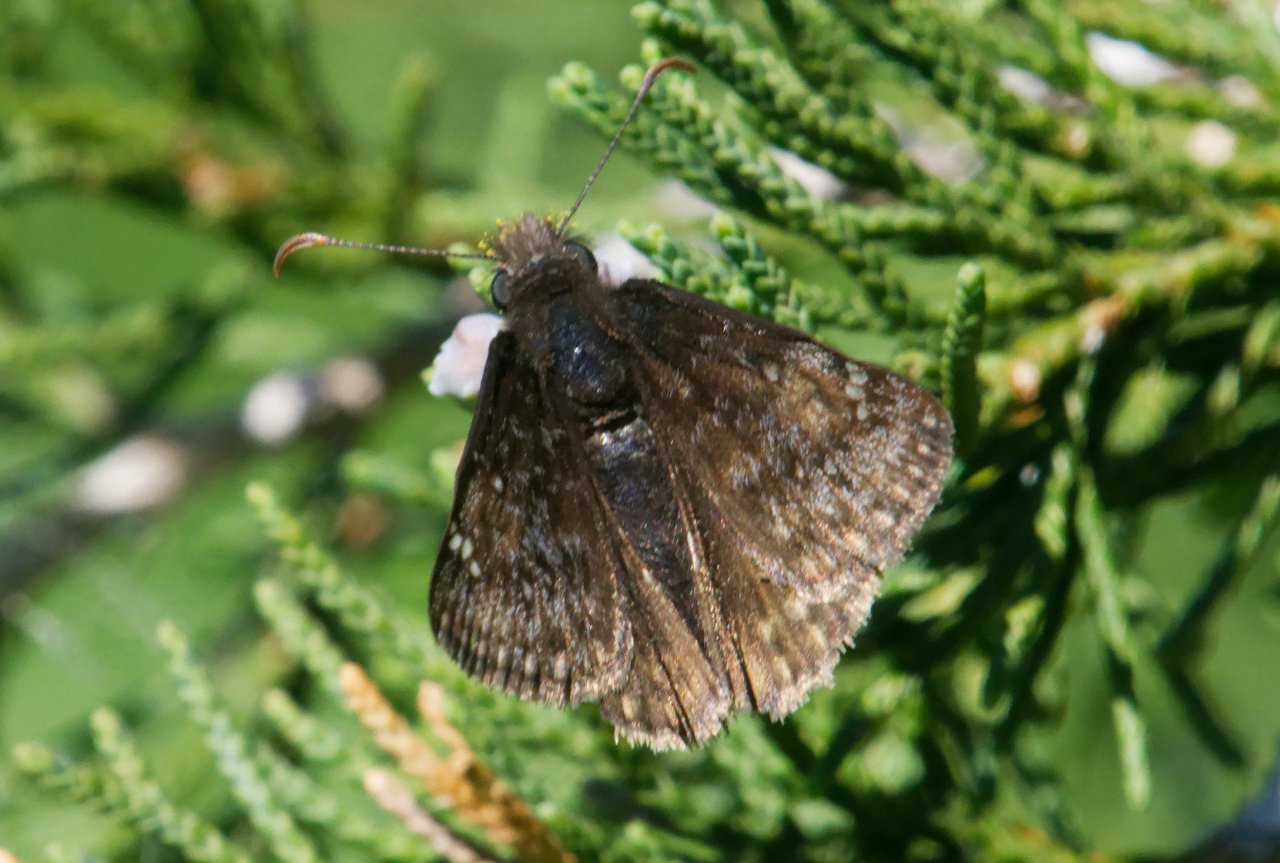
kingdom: Animalia
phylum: Arthropoda
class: Insecta
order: Lepidoptera
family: Hesperiidae
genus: Erynnis
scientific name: Erynnis
